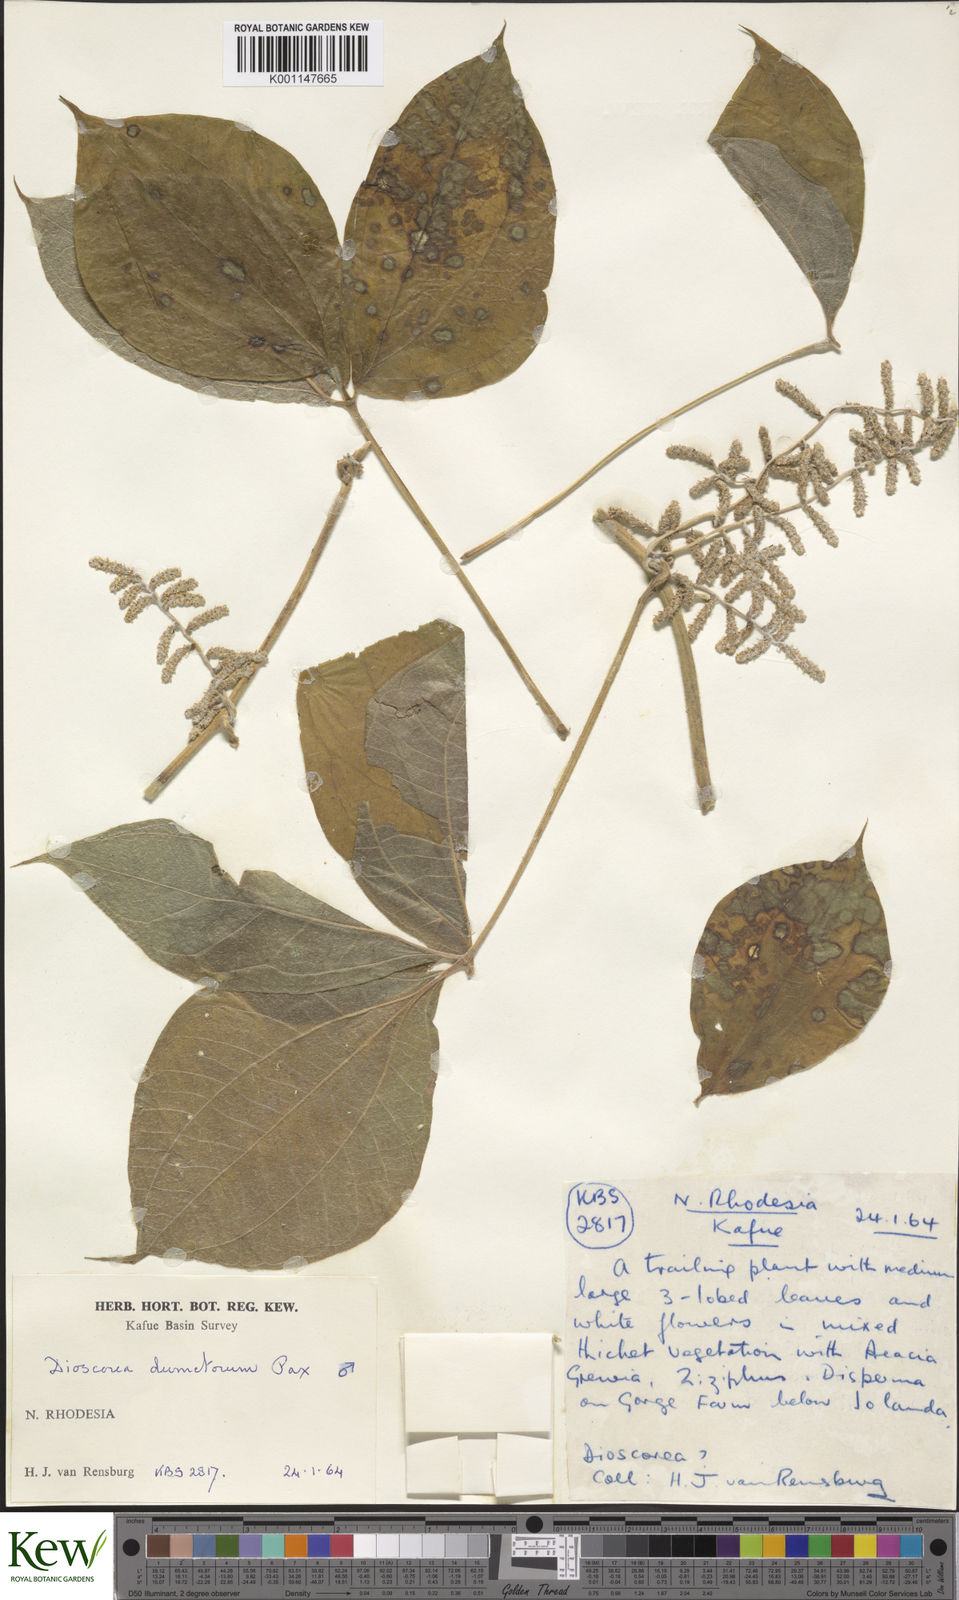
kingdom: Plantae
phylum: Tracheophyta
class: Liliopsida
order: Dioscoreales
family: Dioscoreaceae
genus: Dioscorea
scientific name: Dioscorea dumetorum
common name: African bitter yam
